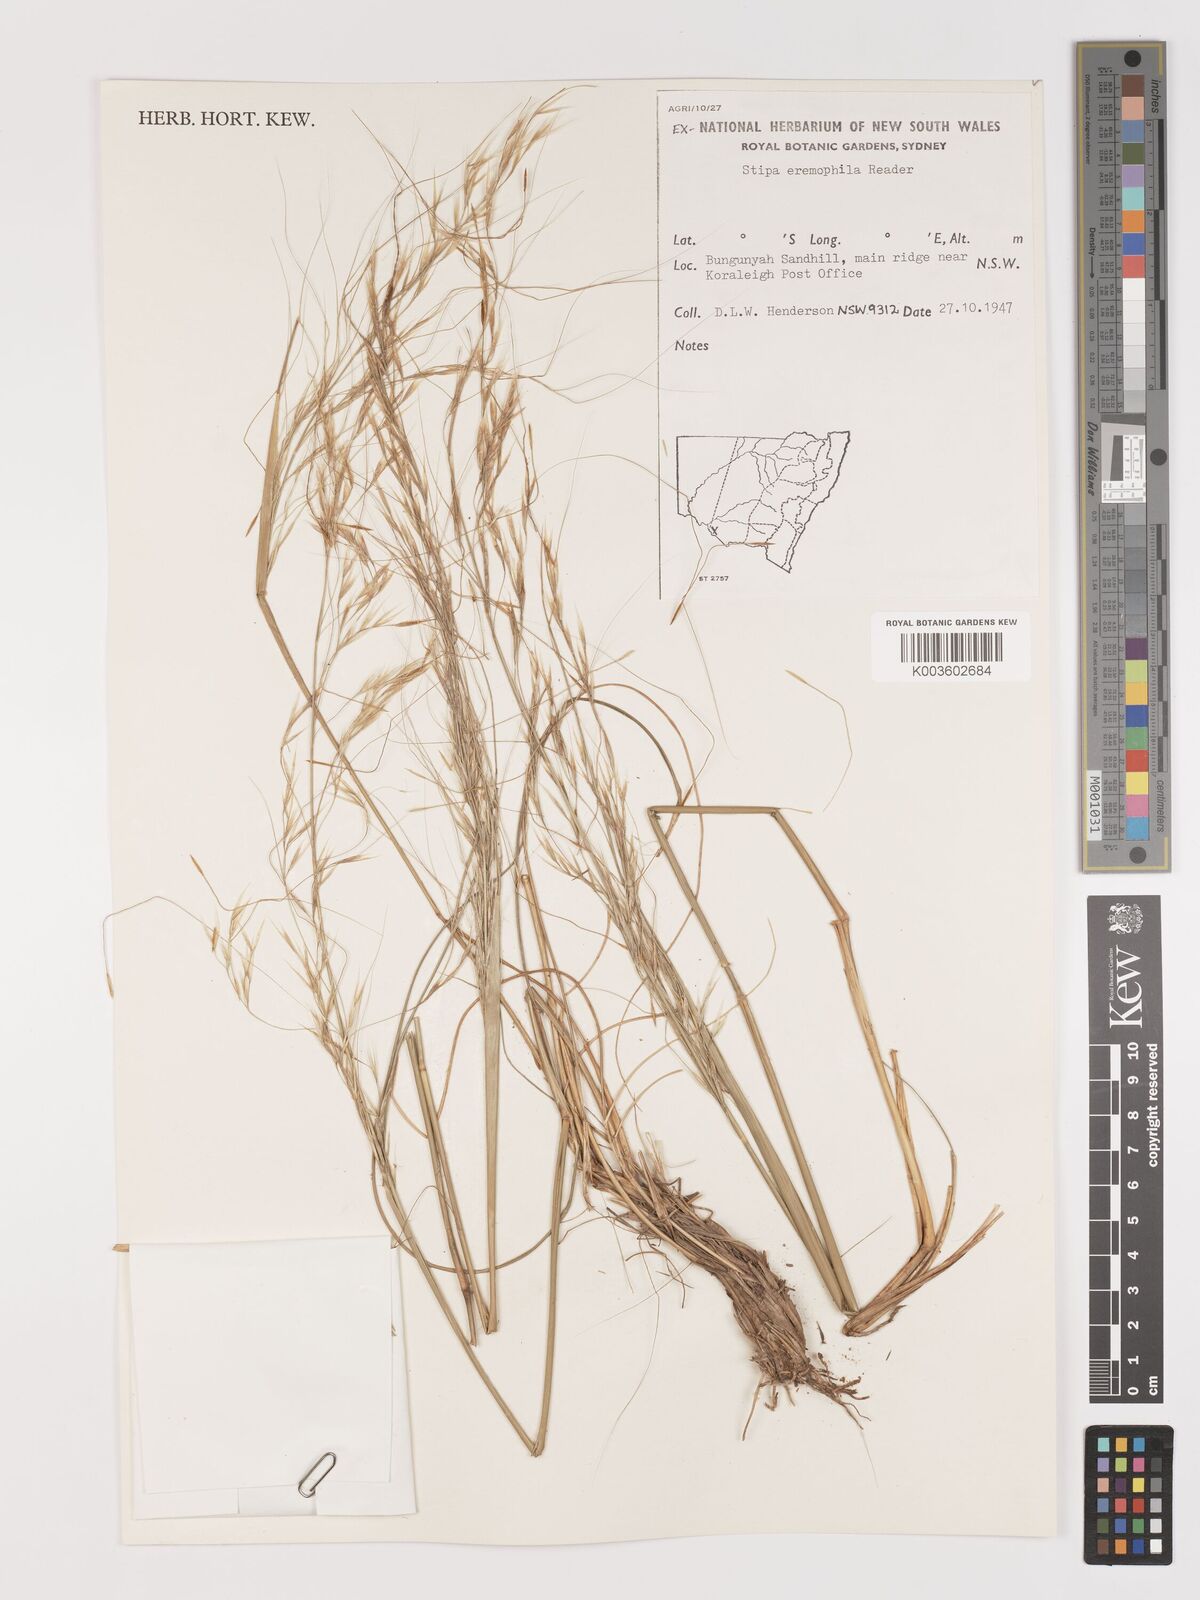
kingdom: Plantae
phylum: Tracheophyta
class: Liliopsida
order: Poales
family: Poaceae
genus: Austrostipa
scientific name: Austrostipa eremophila
